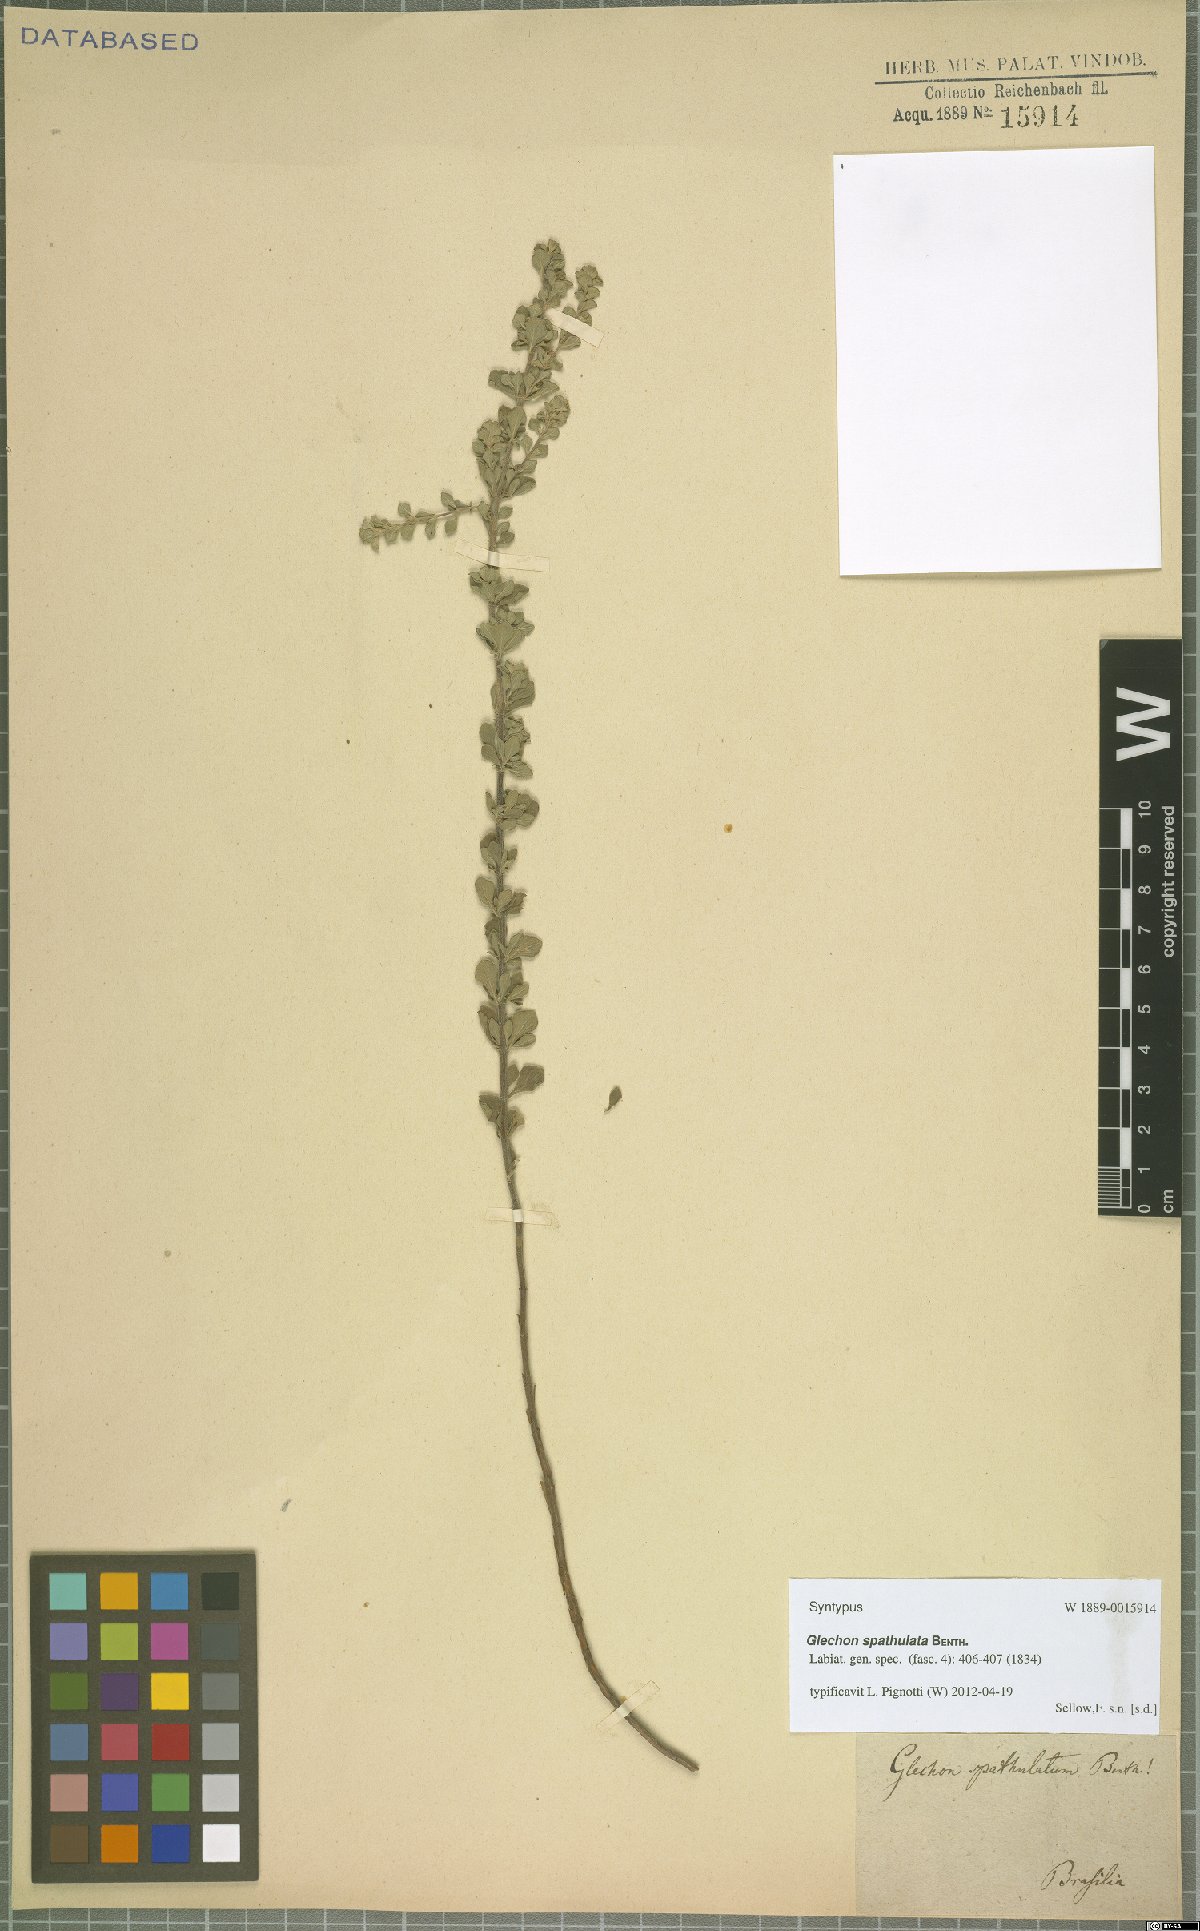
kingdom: Plantae
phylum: Tracheophyta
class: Magnoliopsida
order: Lamiales
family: Lamiaceae
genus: Glechon
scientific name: Glechon thymoides
